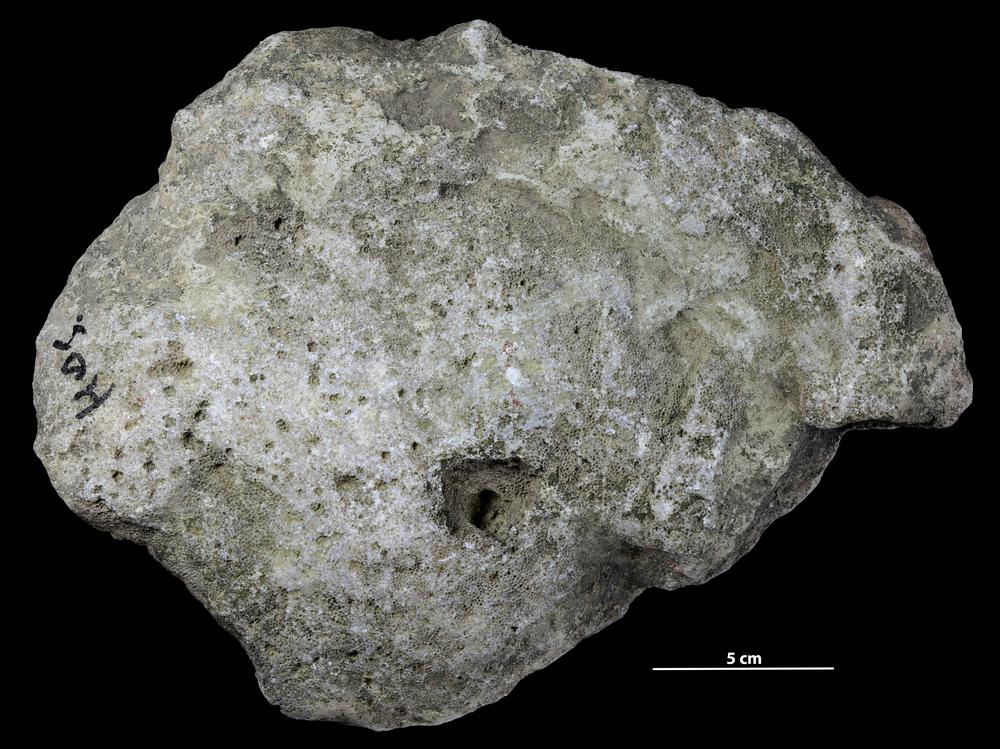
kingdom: Animalia
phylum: Cnidaria
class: Anthozoa
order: Heliolitina
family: Proheliolitidae
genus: Protoheliolites
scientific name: Protoheliolites
